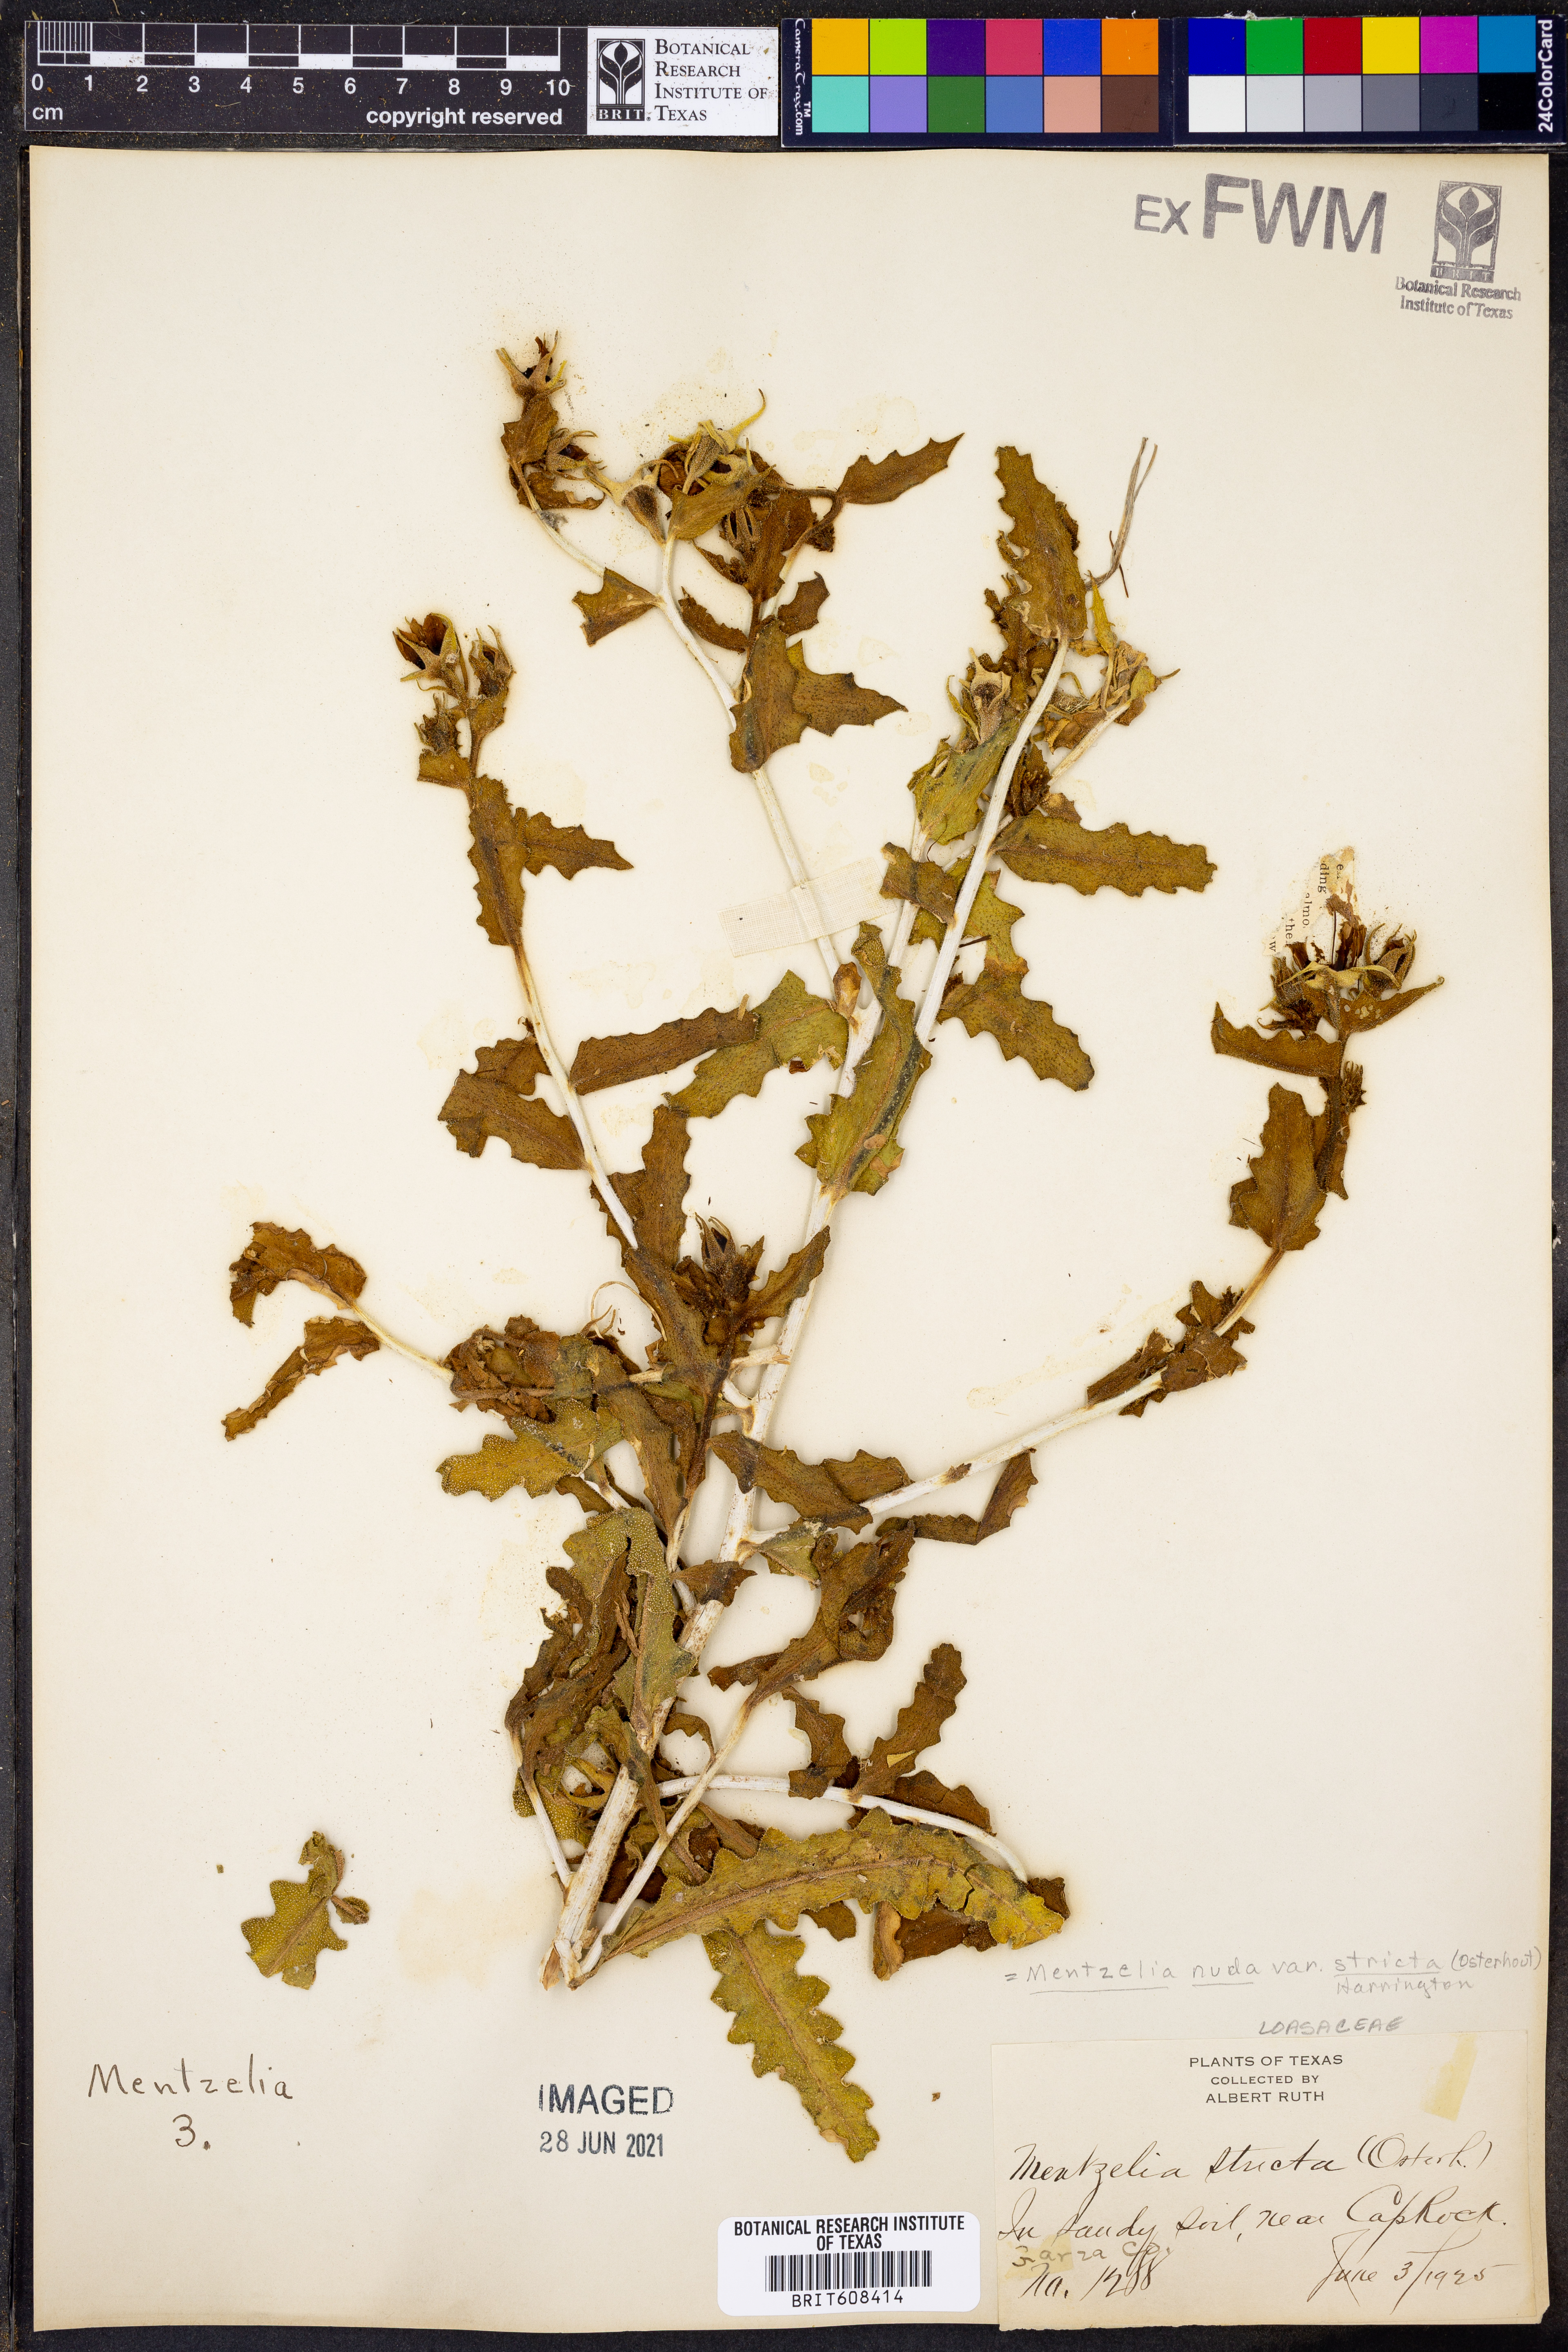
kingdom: Plantae
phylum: Tracheophyta
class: Magnoliopsida
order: Cornales
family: Loasaceae
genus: Mentzelia
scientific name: Mentzelia nuda
